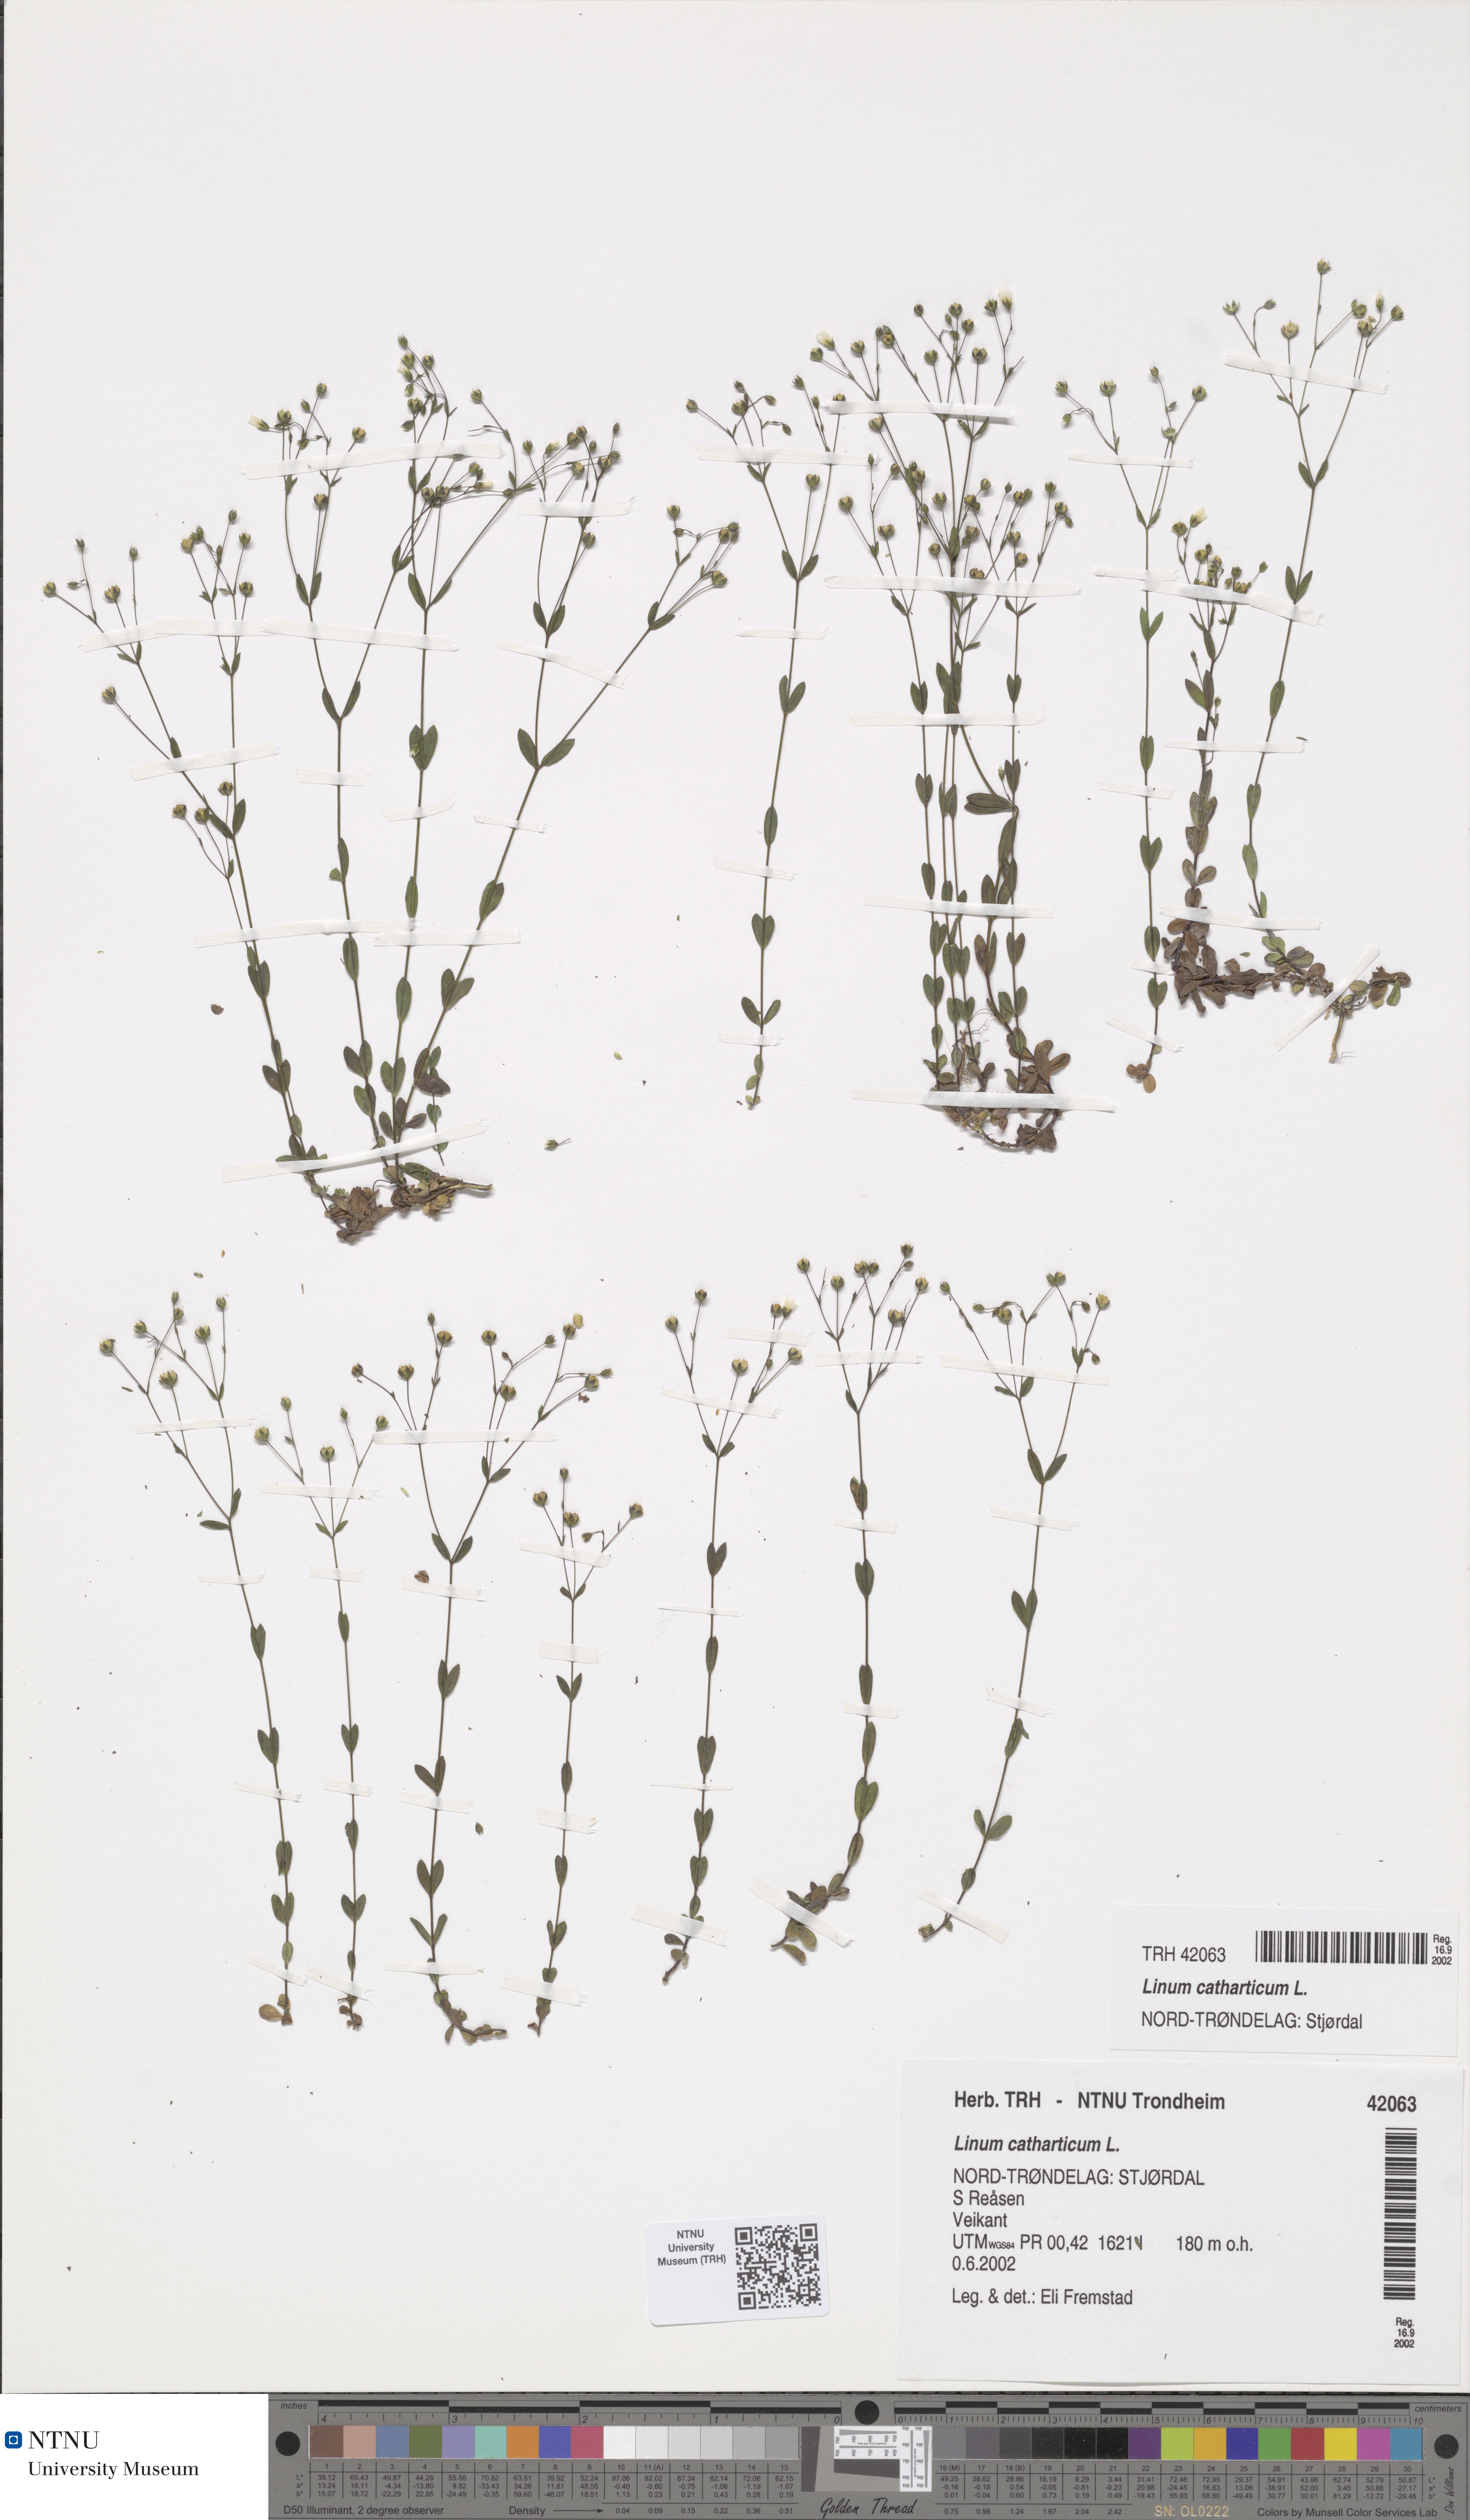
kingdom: Plantae
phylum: Tracheophyta
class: Magnoliopsida
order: Malpighiales
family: Linaceae
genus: Linum
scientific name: Linum catharticum
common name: Fairy flax
